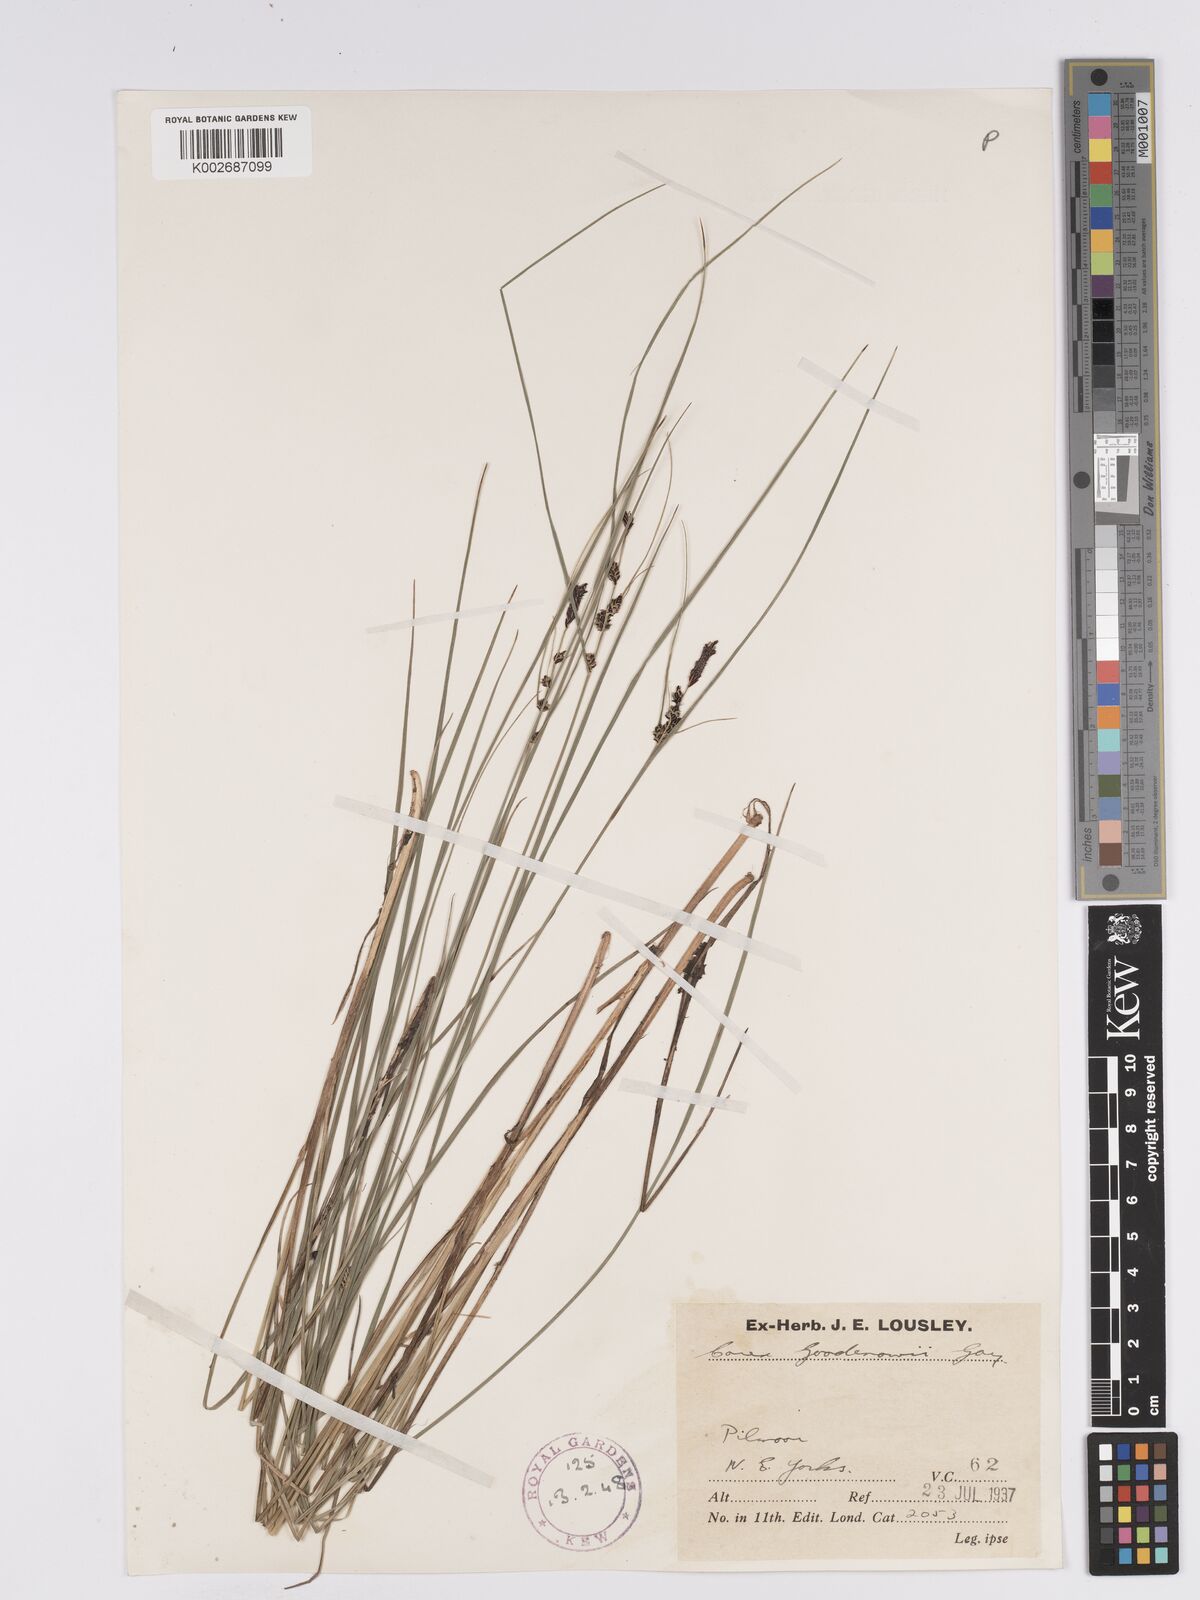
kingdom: Plantae
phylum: Tracheophyta
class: Liliopsida
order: Poales
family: Cyperaceae
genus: Carex
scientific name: Carex nigra
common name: Common sedge
